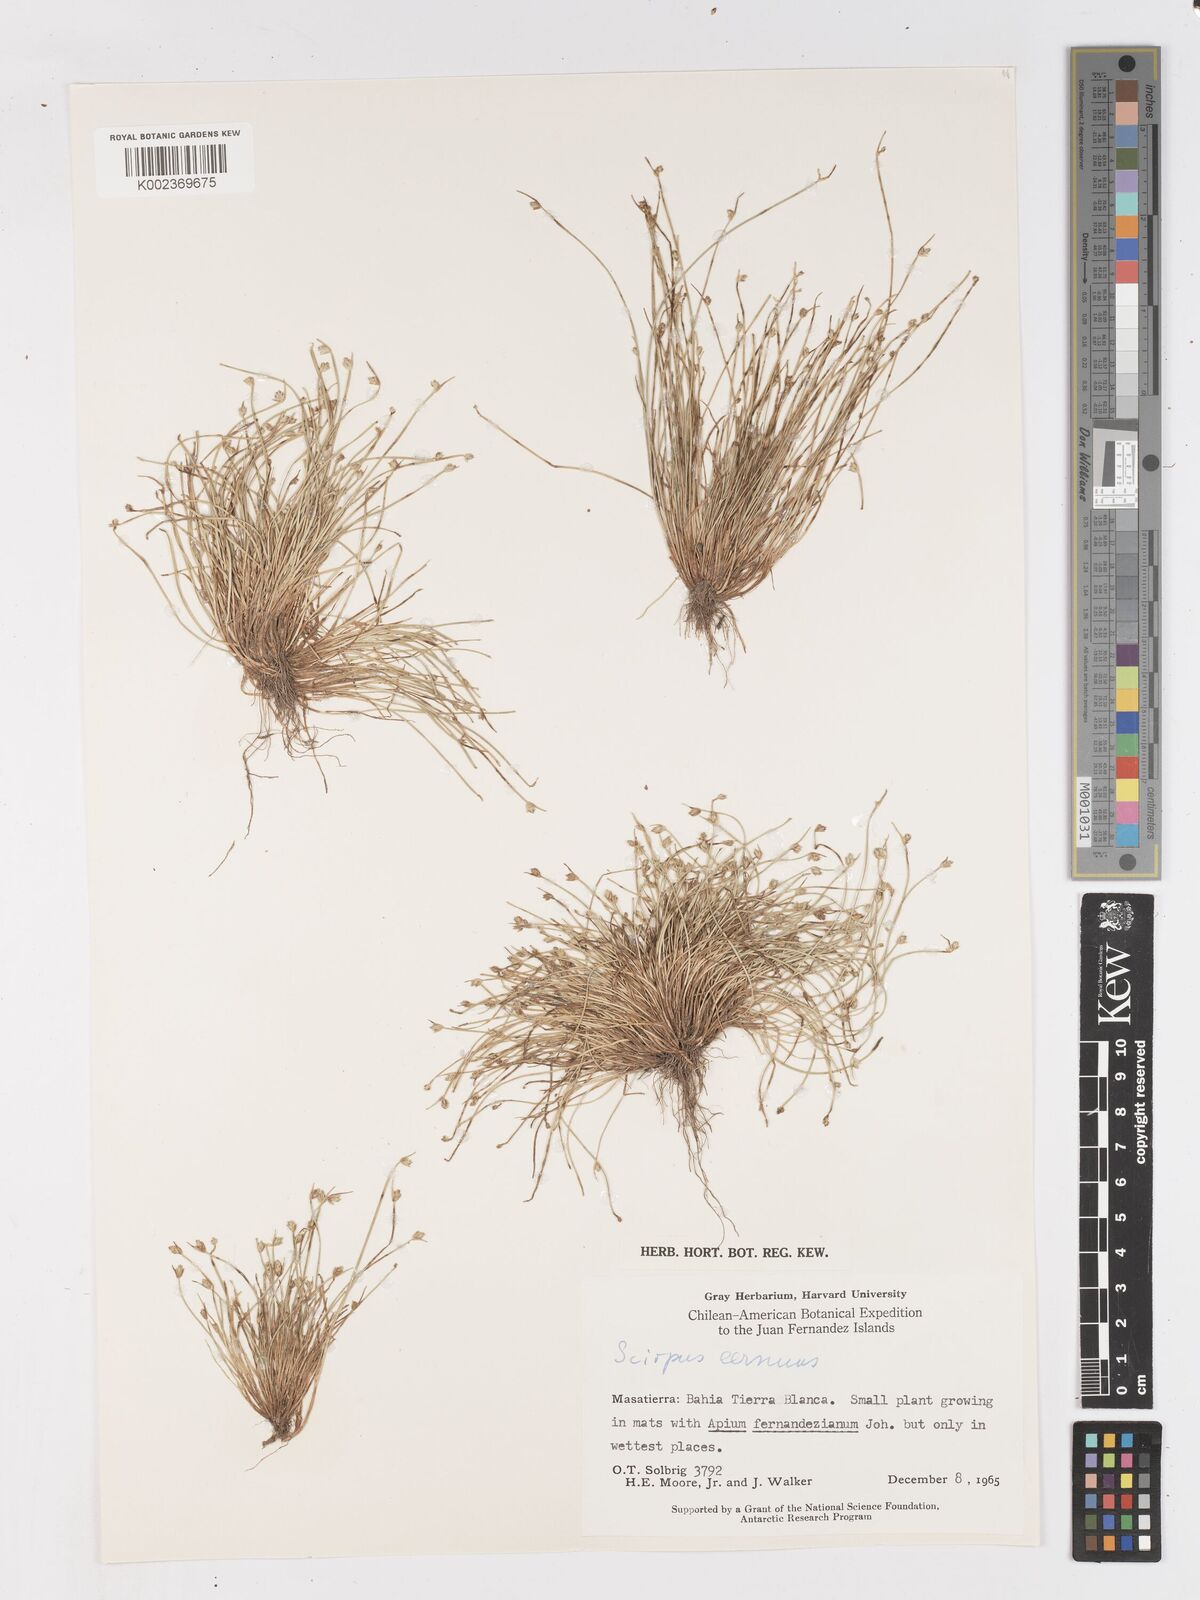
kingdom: Plantae
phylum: Tracheophyta
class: Liliopsida
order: Poales
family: Cyperaceae
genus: Isolepis
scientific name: Isolepis cernua
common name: Slender club-rush
